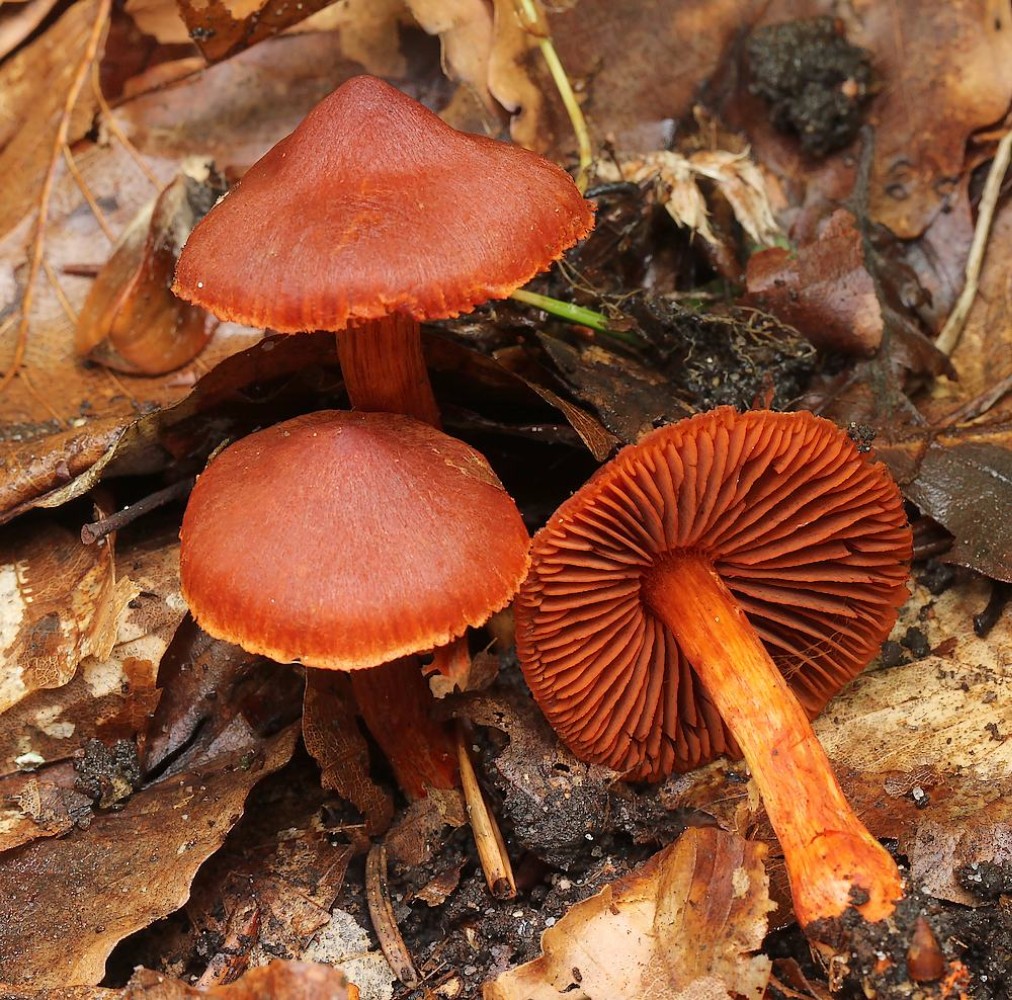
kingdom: Fungi
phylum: Basidiomycota
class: Agaricomycetes
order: Agaricales
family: Cortinariaceae
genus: Cortinarius
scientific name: Cortinarius cinnabarinus
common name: cinnober-slørhat
